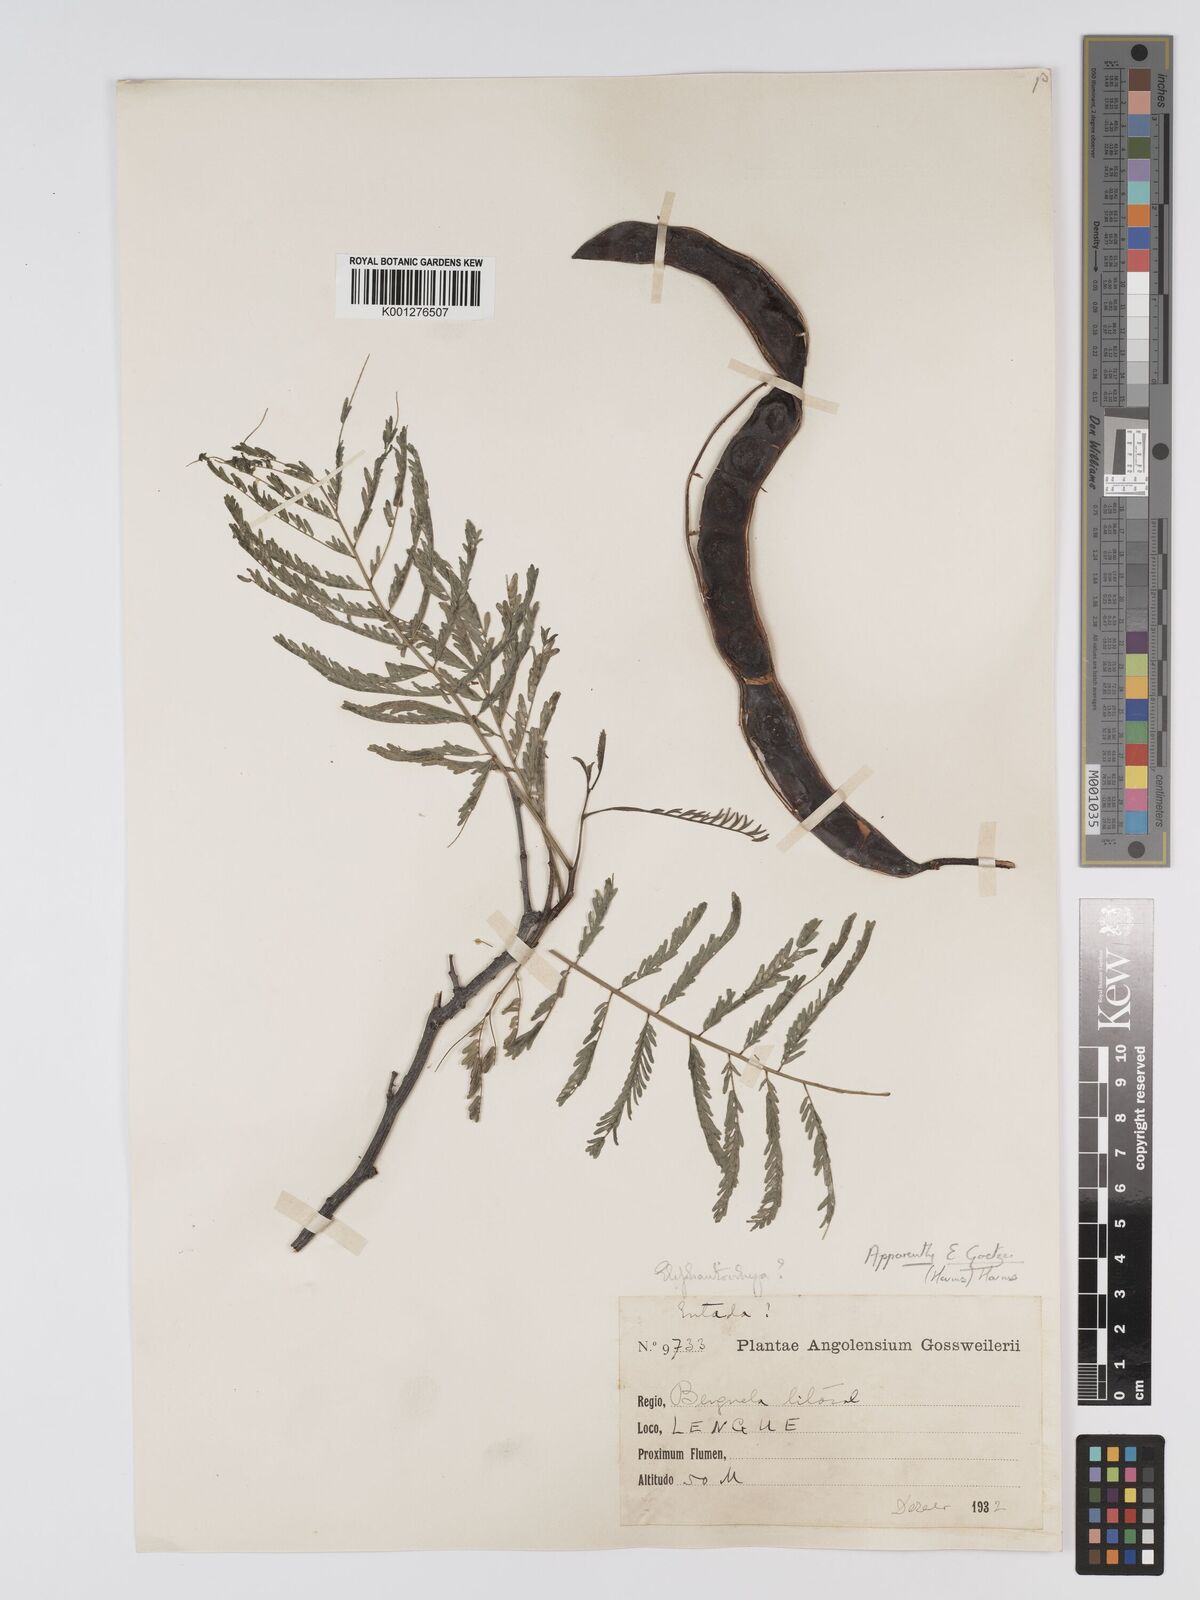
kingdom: Plantae
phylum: Tracheophyta
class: Magnoliopsida
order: Fabales
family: Fabaceae
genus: Elephantorrhiza
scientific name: Elephantorrhiza goetzei
